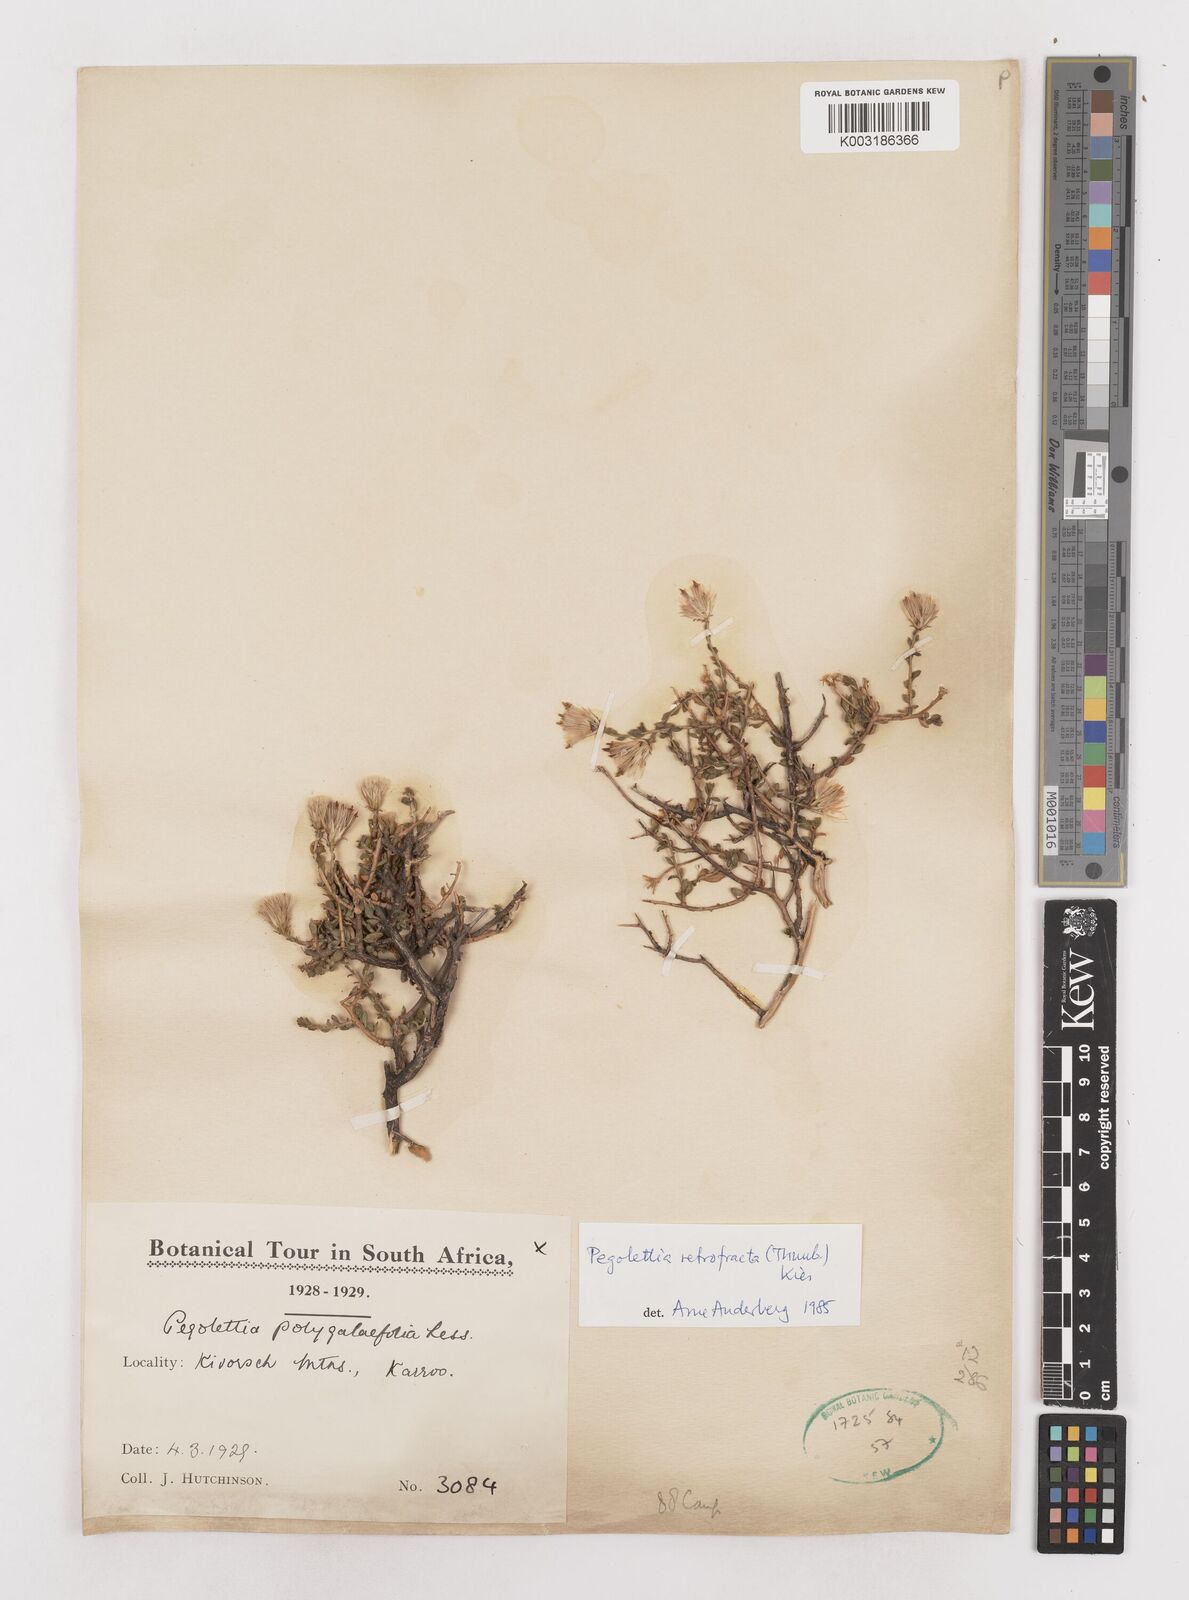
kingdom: Plantae
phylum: Tracheophyta
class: Magnoliopsida
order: Asterales
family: Asteraceae
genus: Pegolettia
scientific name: Pegolettia retrofracta
